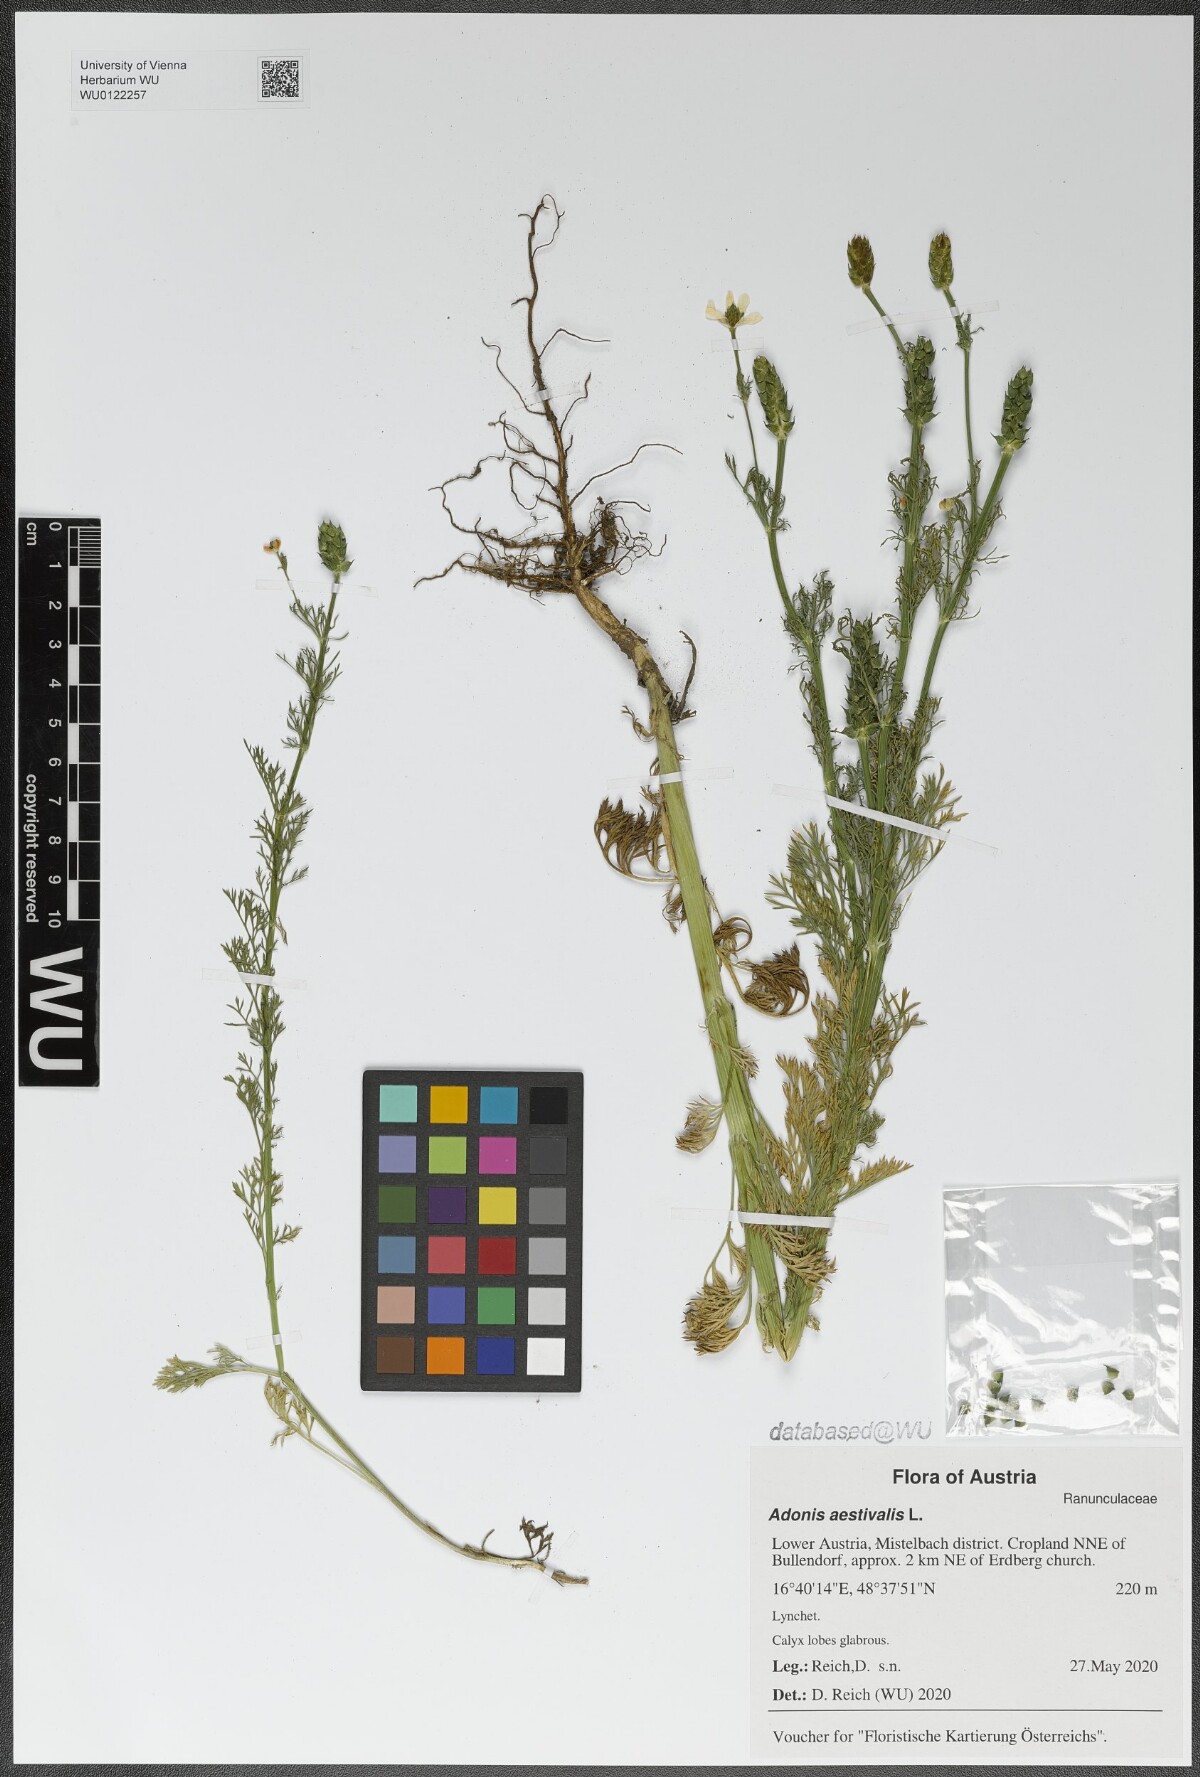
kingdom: Plantae
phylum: Tracheophyta
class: Magnoliopsida
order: Ranunculales
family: Ranunculaceae
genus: Adonis
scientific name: Adonis aestivalis
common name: Summer pheasant's-eye
